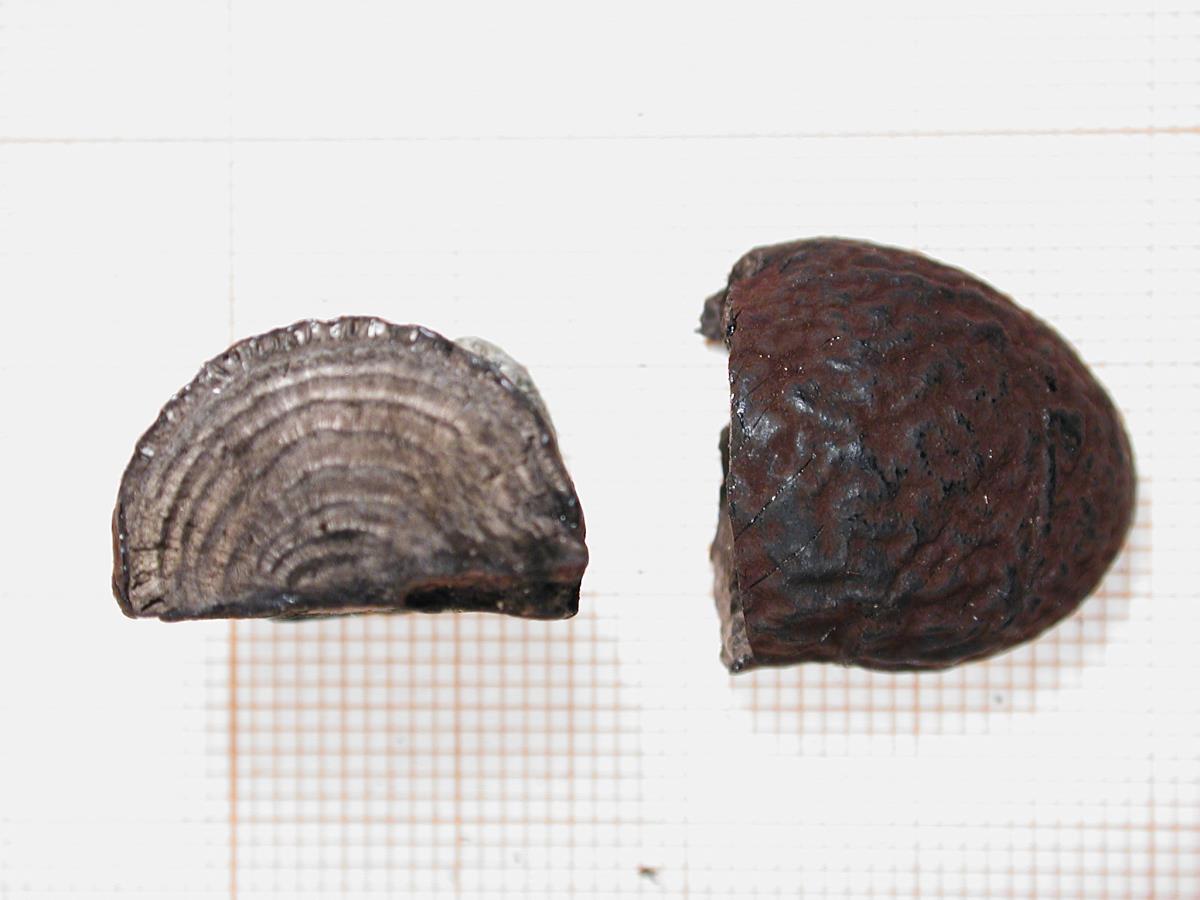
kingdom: Fungi
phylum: Ascomycota
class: Sordariomycetes
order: Xylariales
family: Hypoxylaceae
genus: Daldinia
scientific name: Daldinia dennisii
